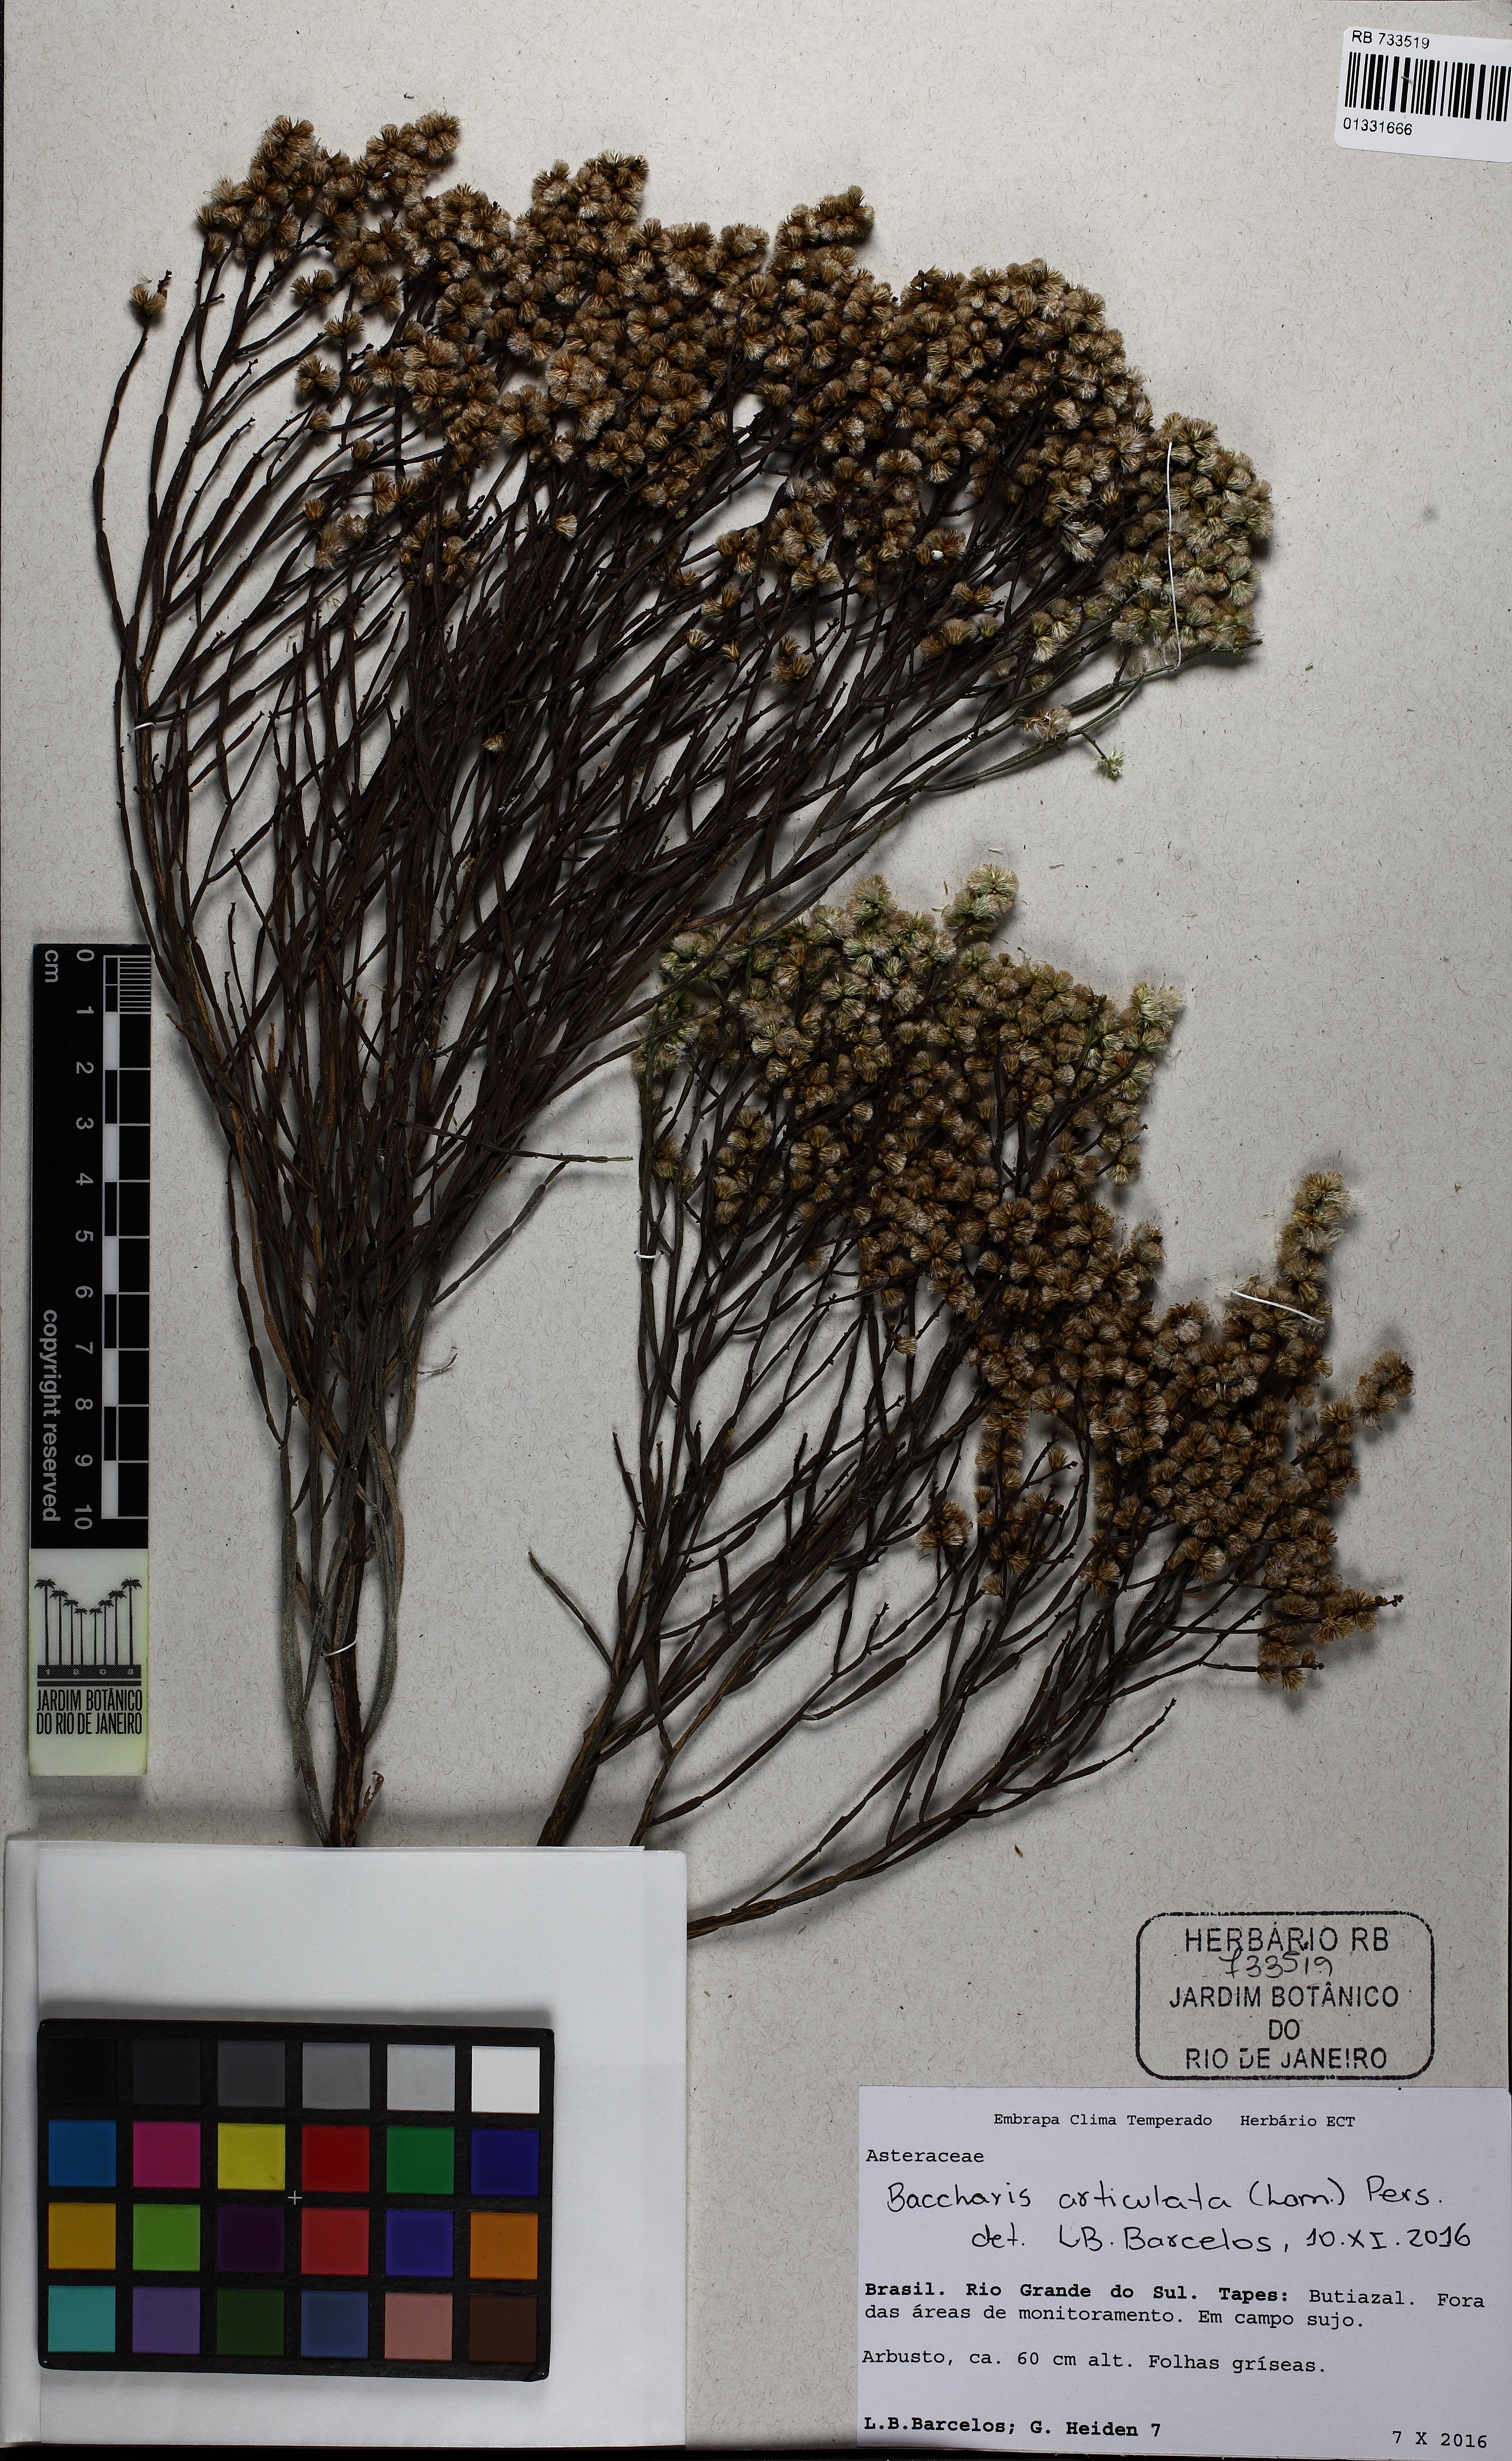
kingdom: Plantae
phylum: Tracheophyta
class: Magnoliopsida
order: Asterales
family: Asteraceae
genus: Baccharis
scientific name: Baccharis articulata
